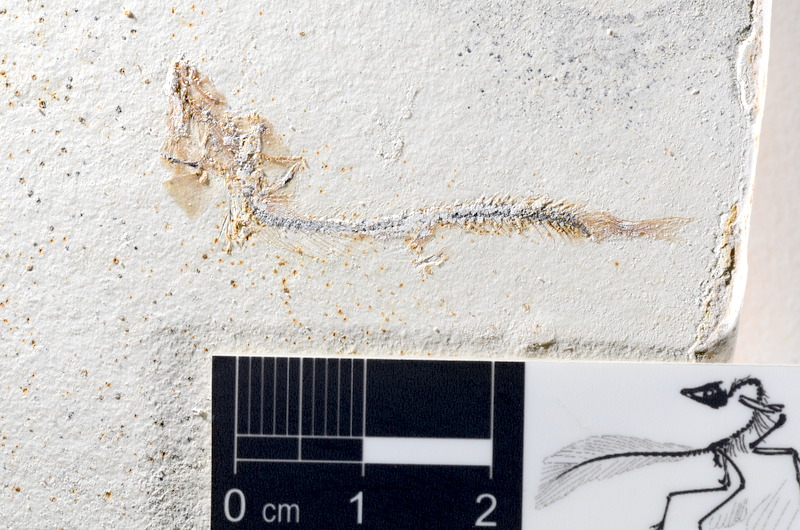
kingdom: Animalia
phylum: Chordata
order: Salmoniformes
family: Orthogonikleithridae
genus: Orthogonikleithrus
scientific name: Orthogonikleithrus hoelli
